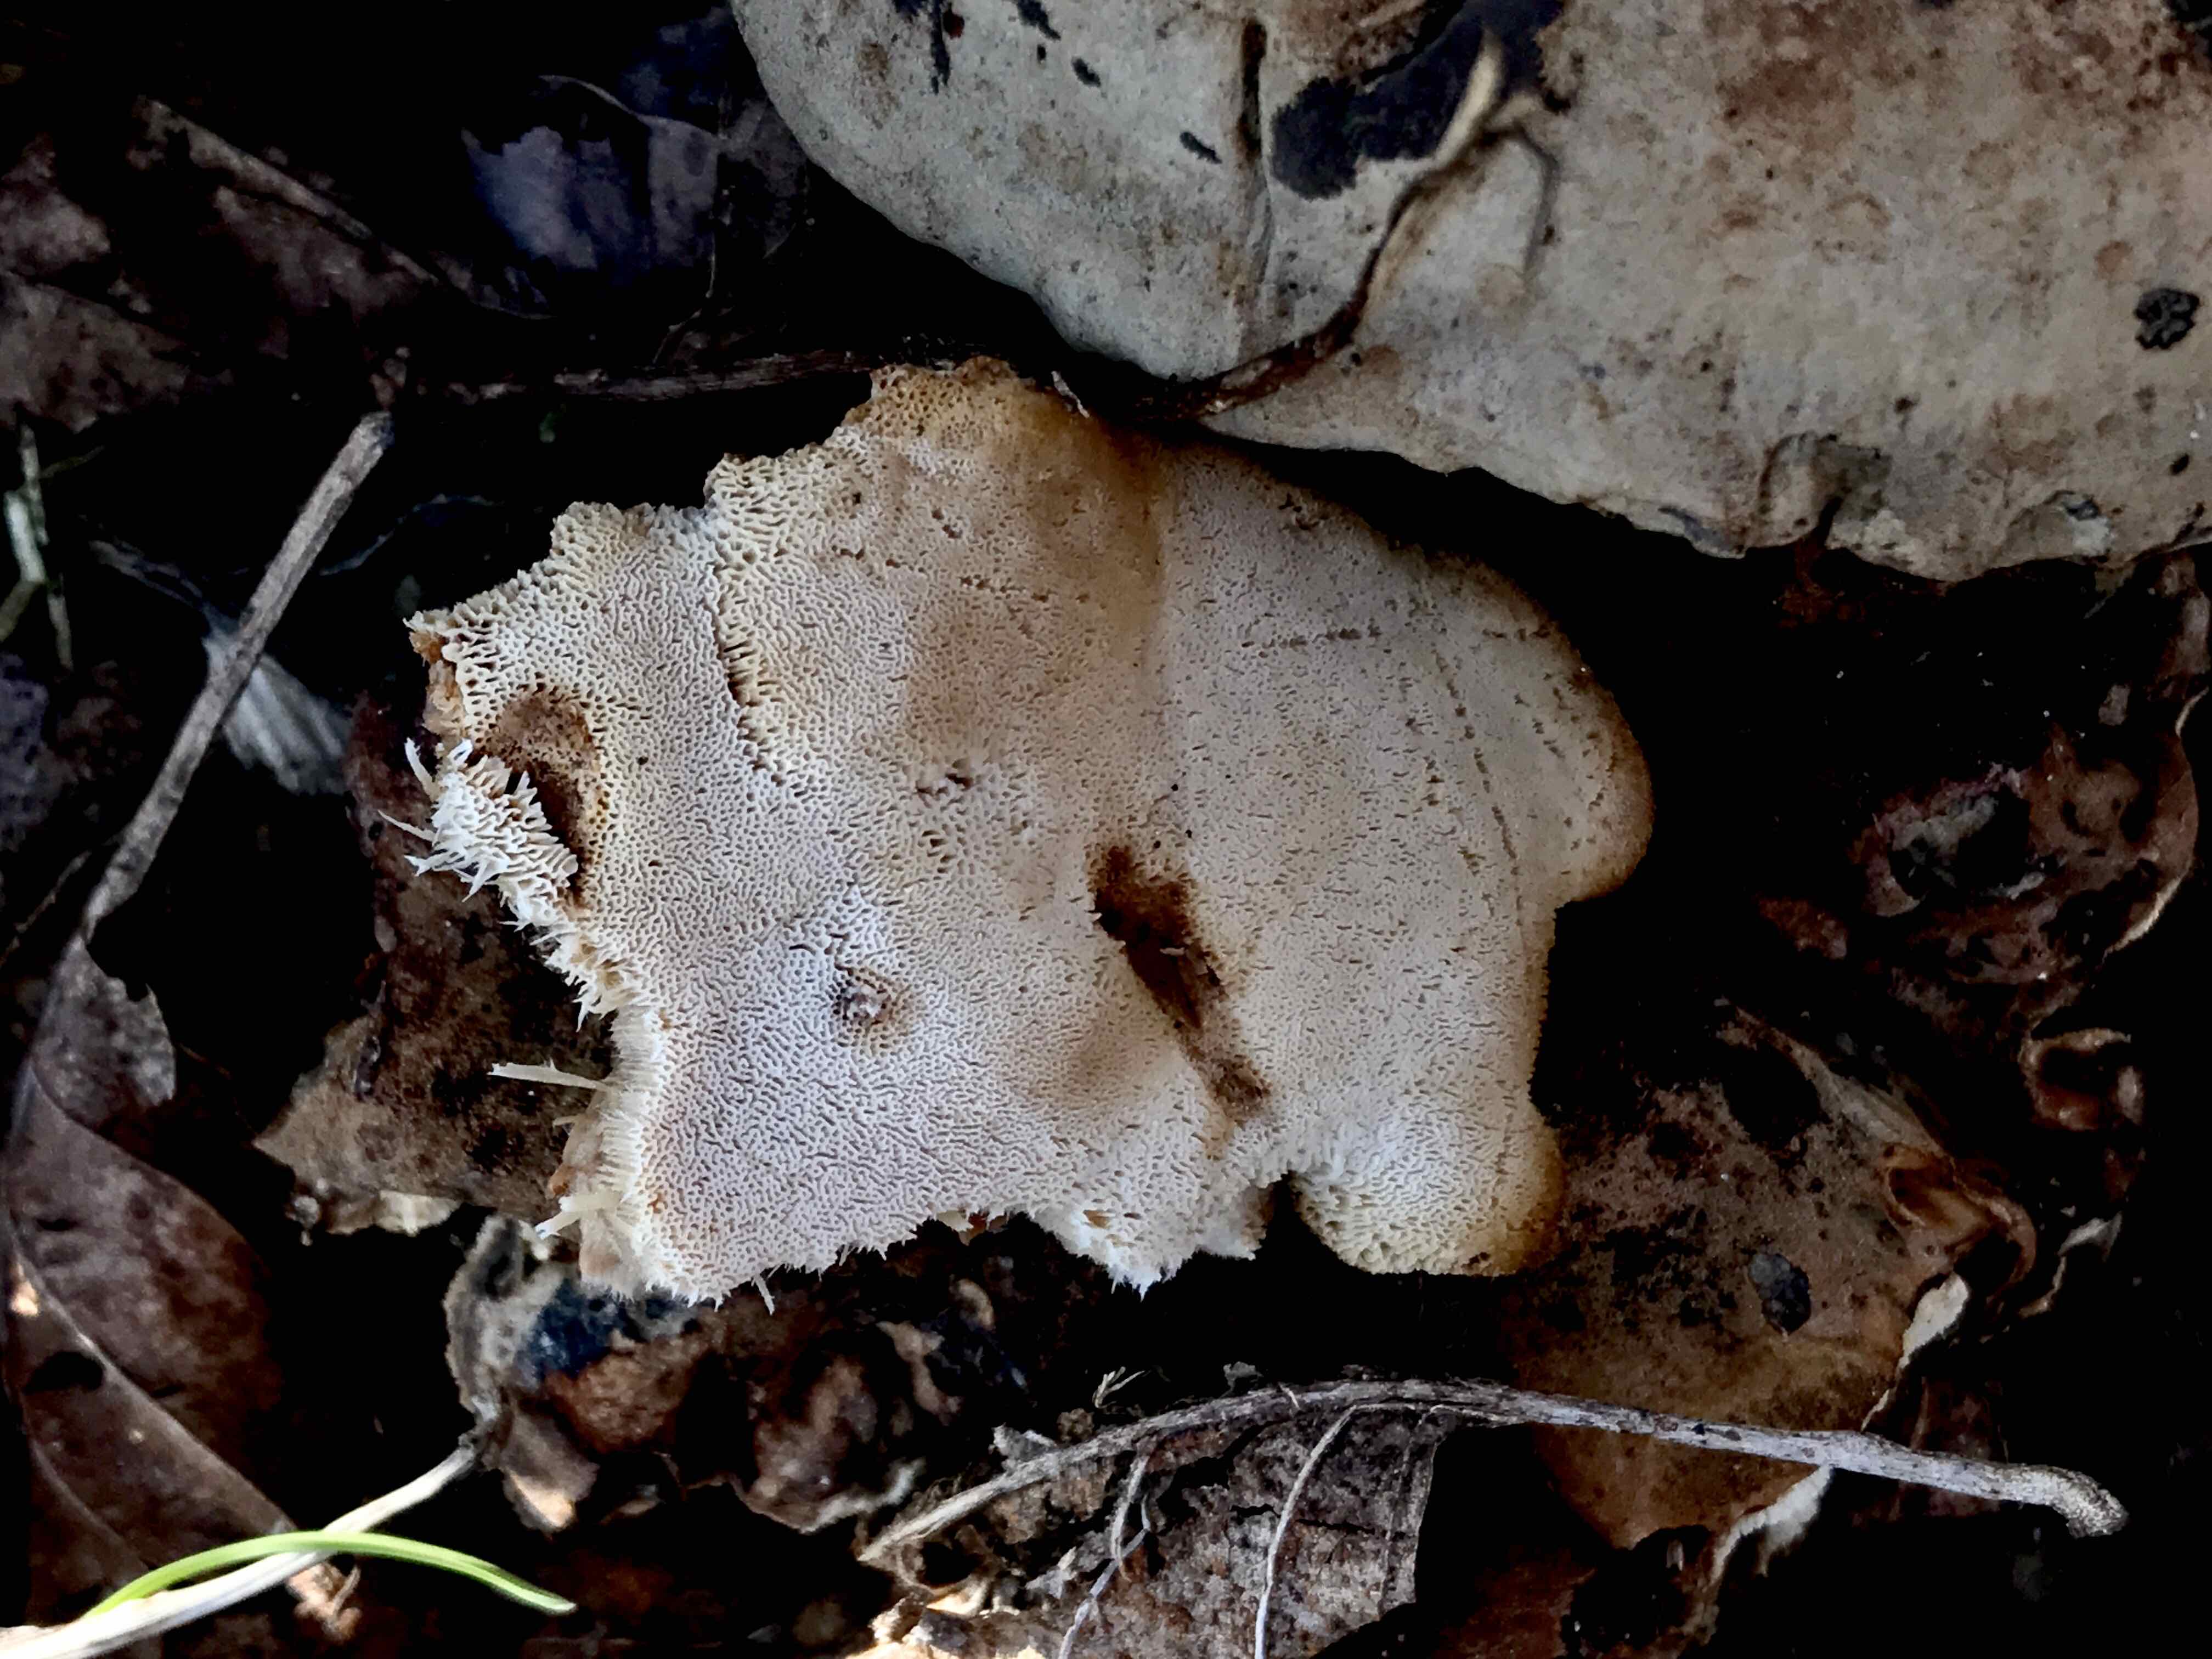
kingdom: Fungi
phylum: Basidiomycota
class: Agaricomycetes
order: Polyporales
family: Ischnodermataceae
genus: Ischnoderma
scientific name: Ischnoderma resinosum
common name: løv-tjæreporesvamp
